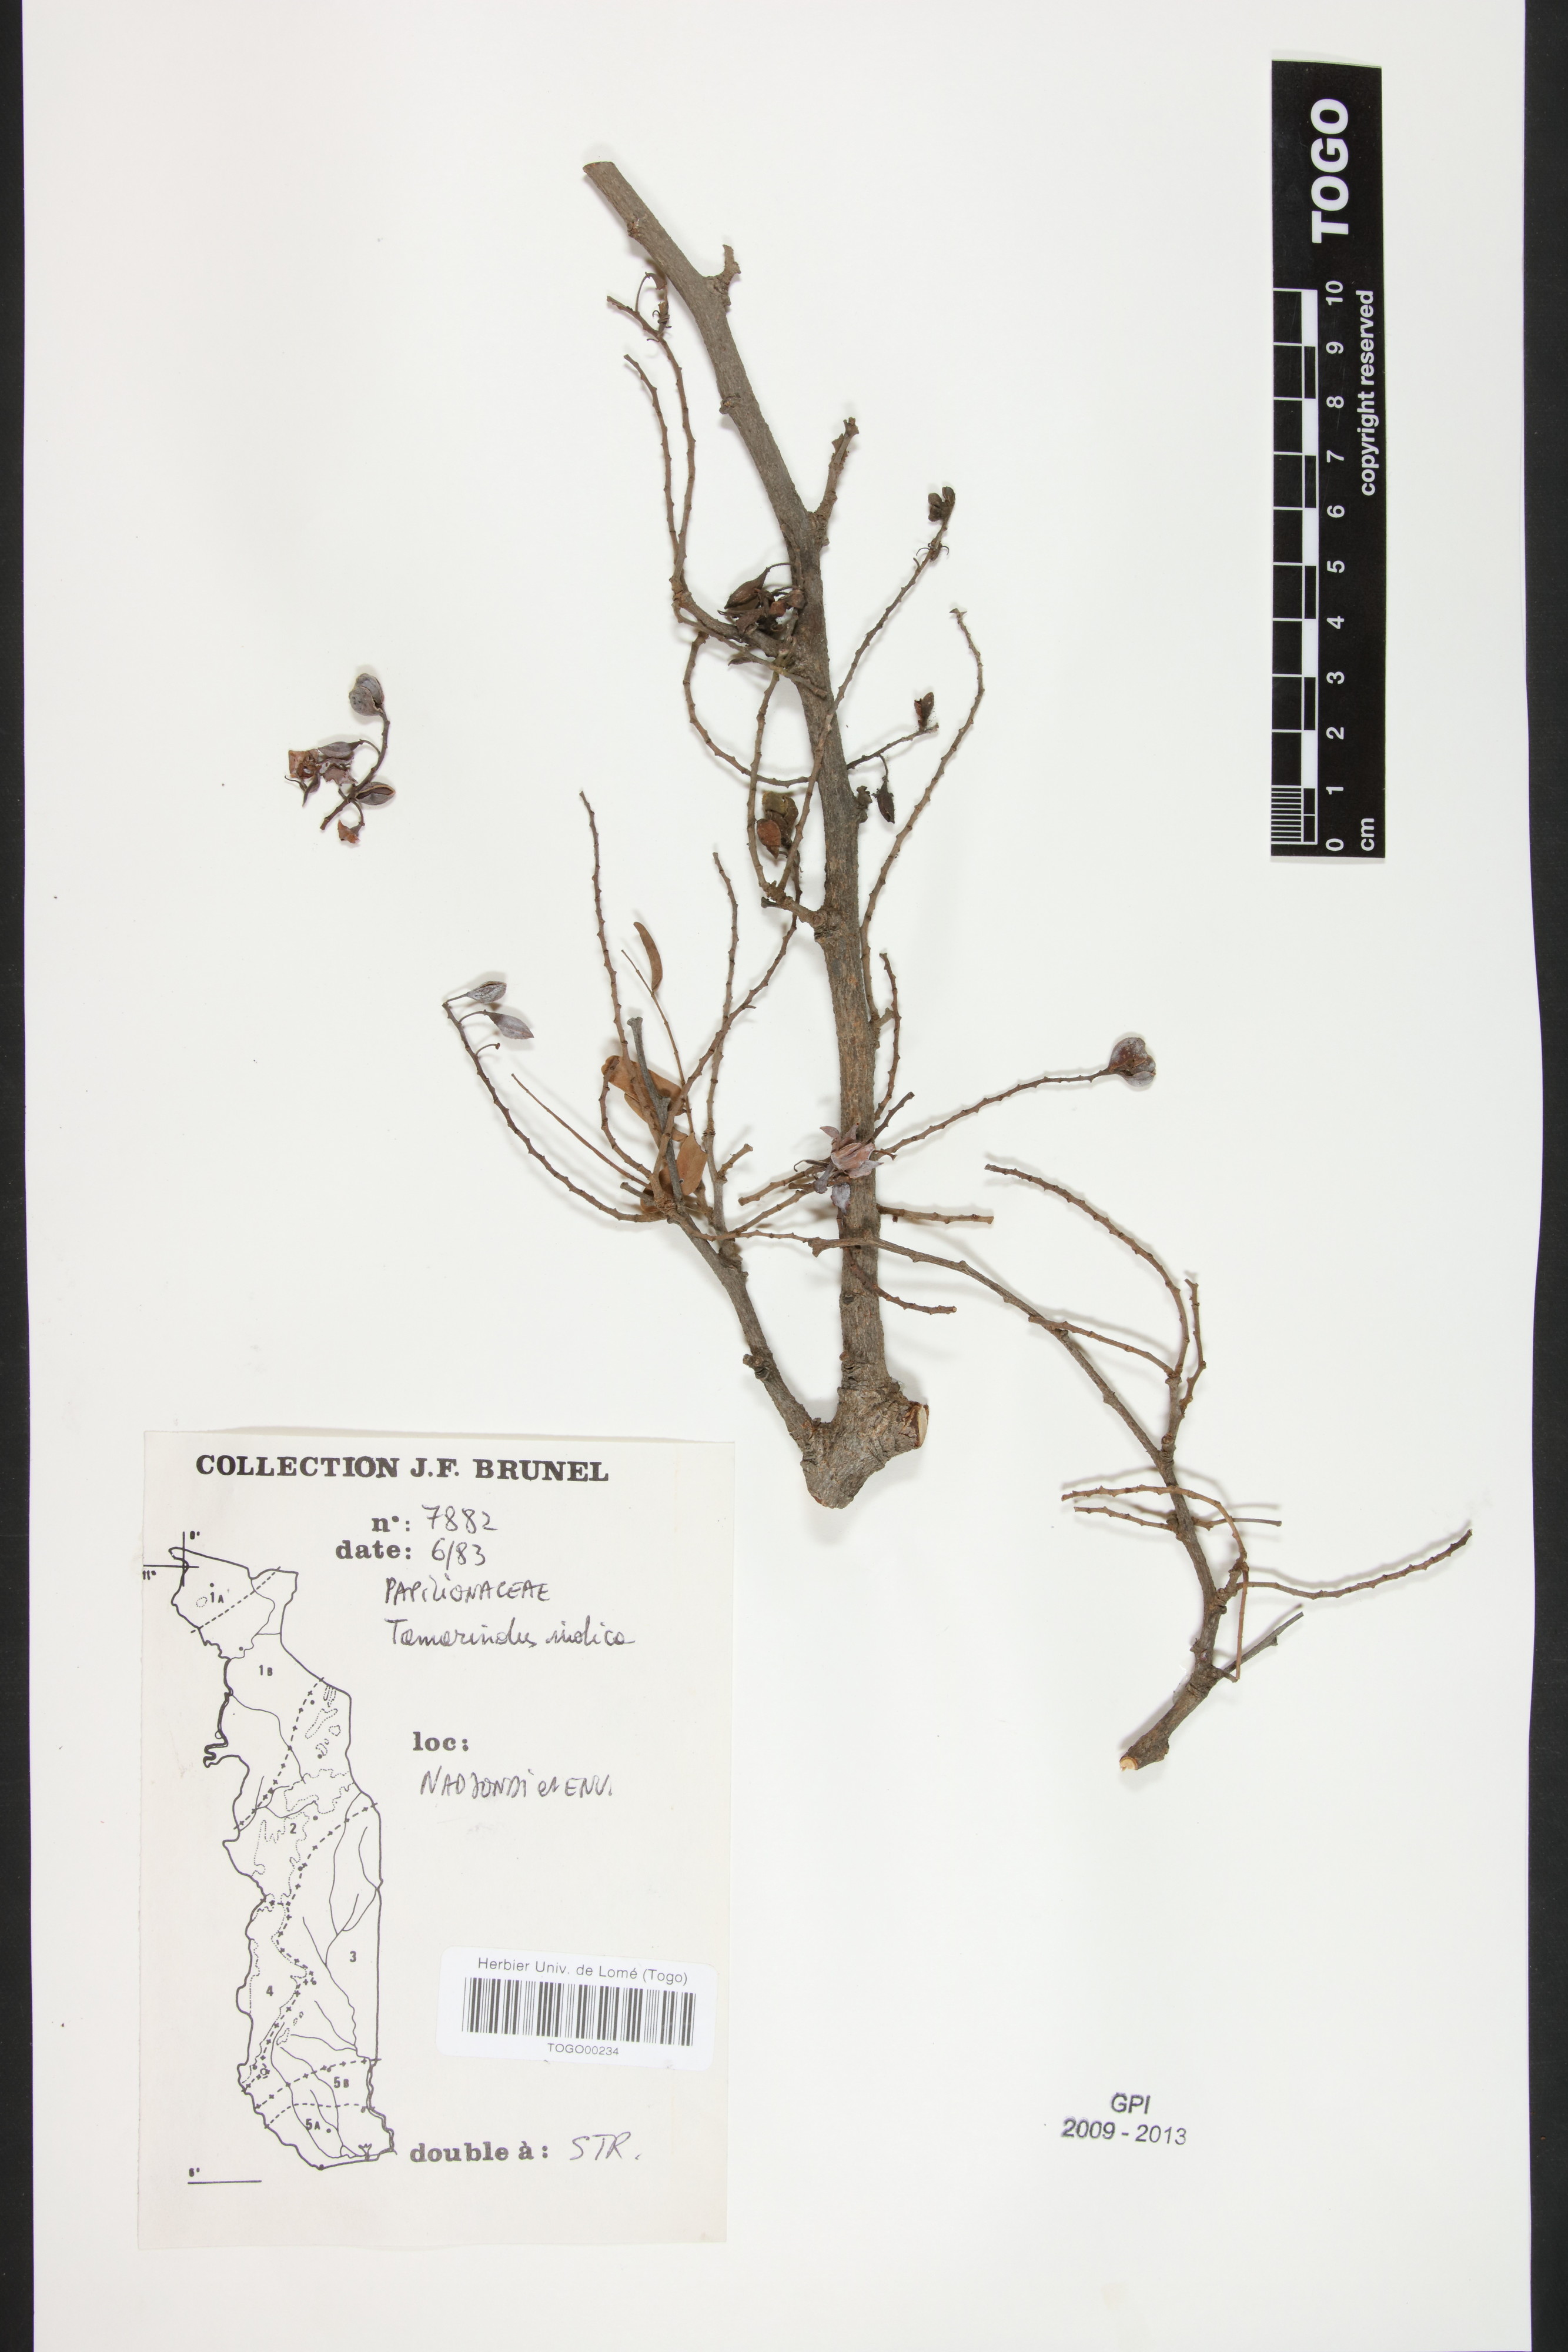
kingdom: Plantae
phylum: Tracheophyta
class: Magnoliopsida
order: Fabales
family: Fabaceae
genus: Tamarindus
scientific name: Tamarindus indica
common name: Tamarind
